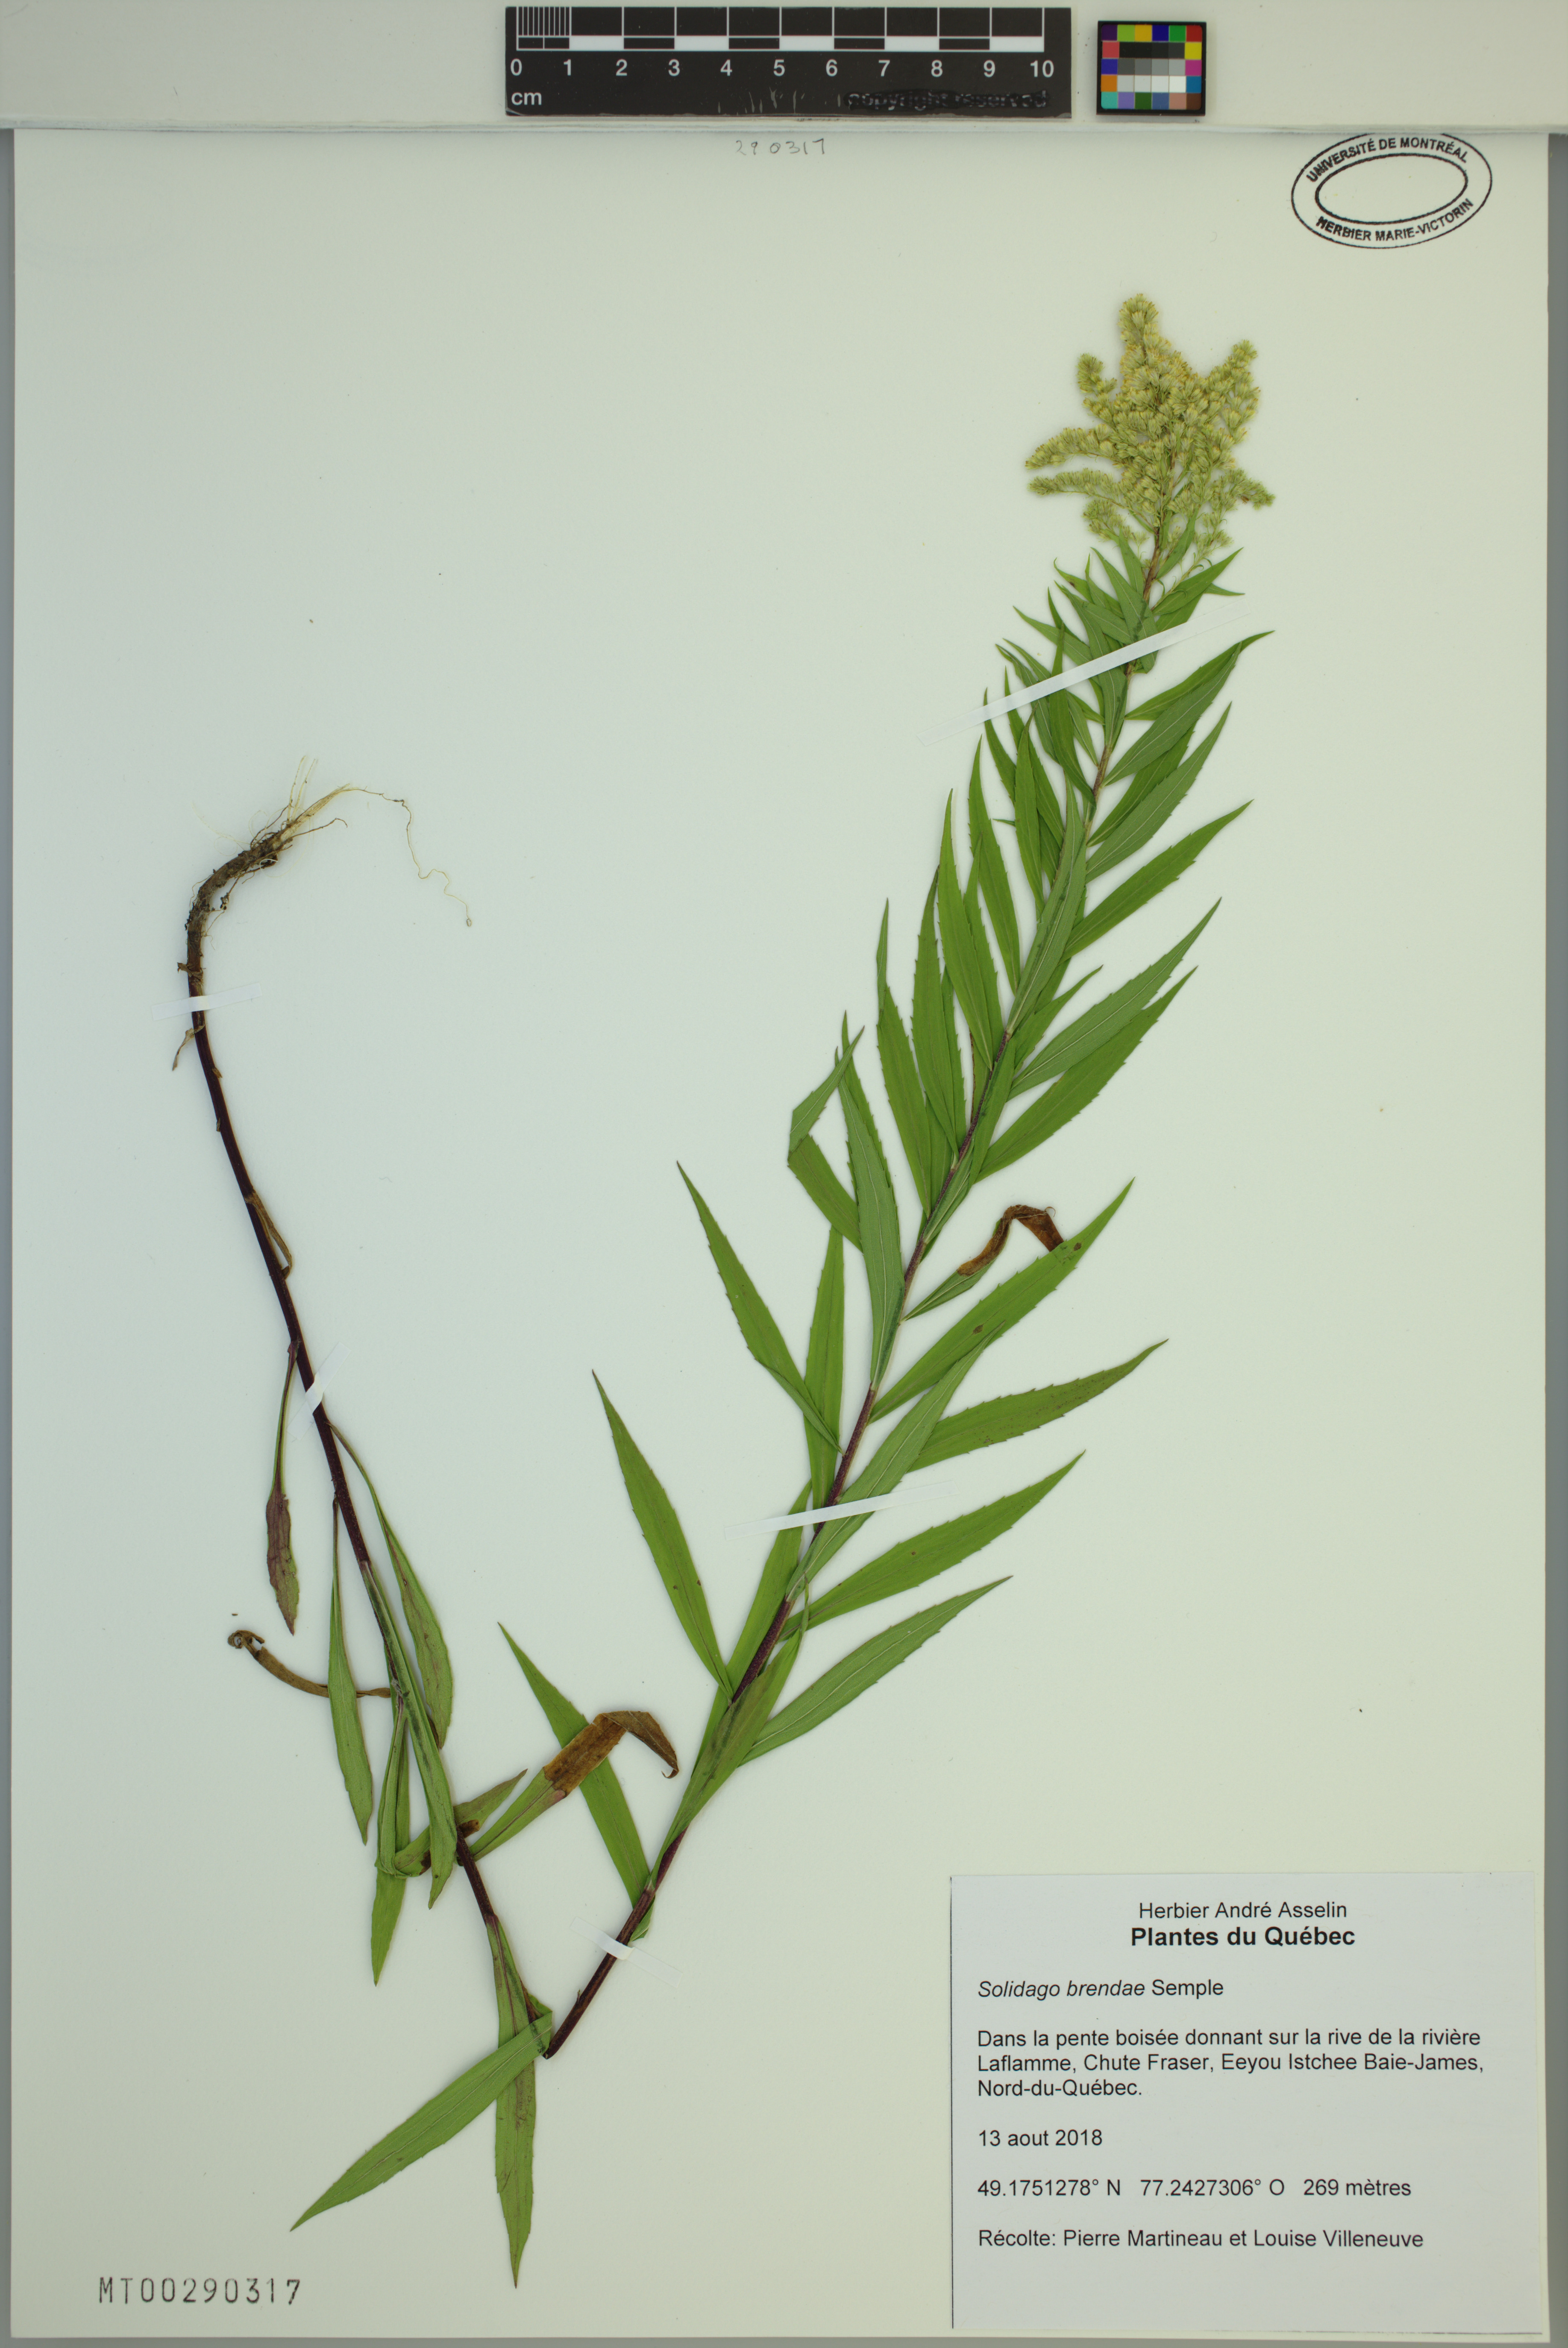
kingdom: Plantae
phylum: Tracheophyta
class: Magnoliopsida
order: Asterales
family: Asteraceae
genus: Solidago
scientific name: Solidago brendae
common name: Brenda's goldenrod
